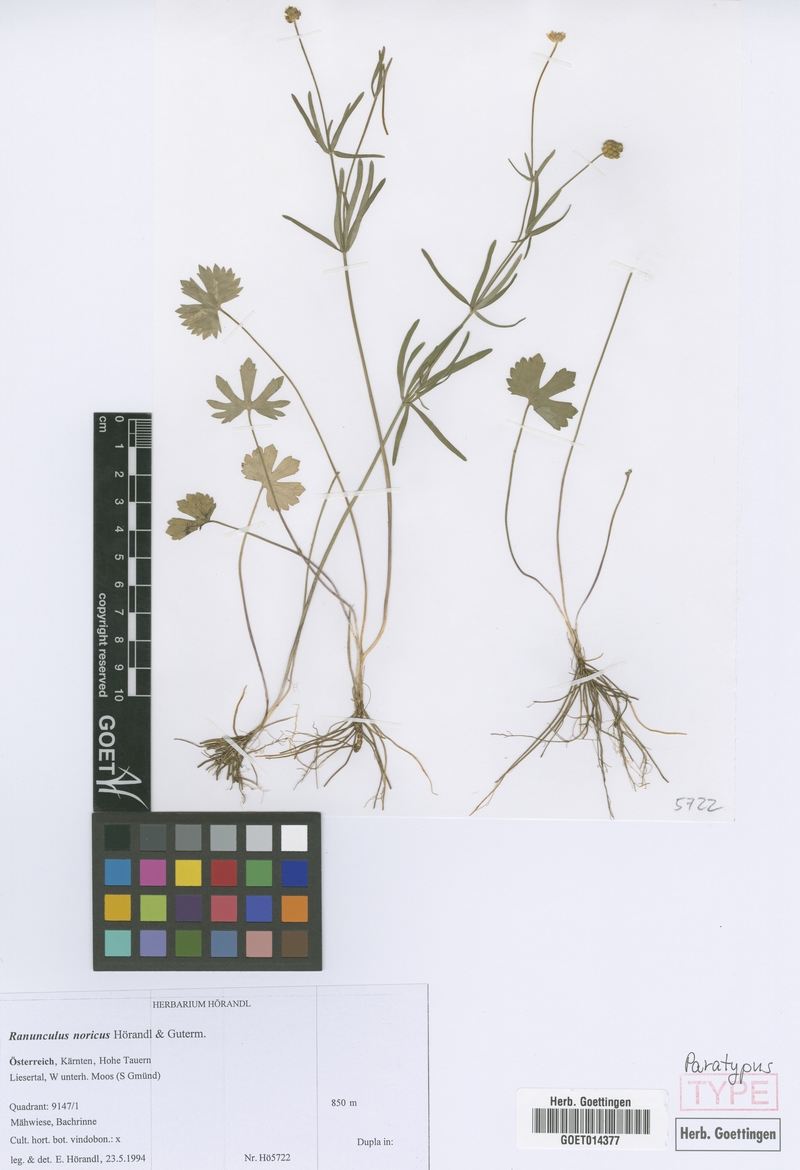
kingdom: Plantae
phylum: Tracheophyta
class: Magnoliopsida
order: Ranunculales
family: Ranunculaceae
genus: Ranunculus
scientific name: Ranunculus noricus
